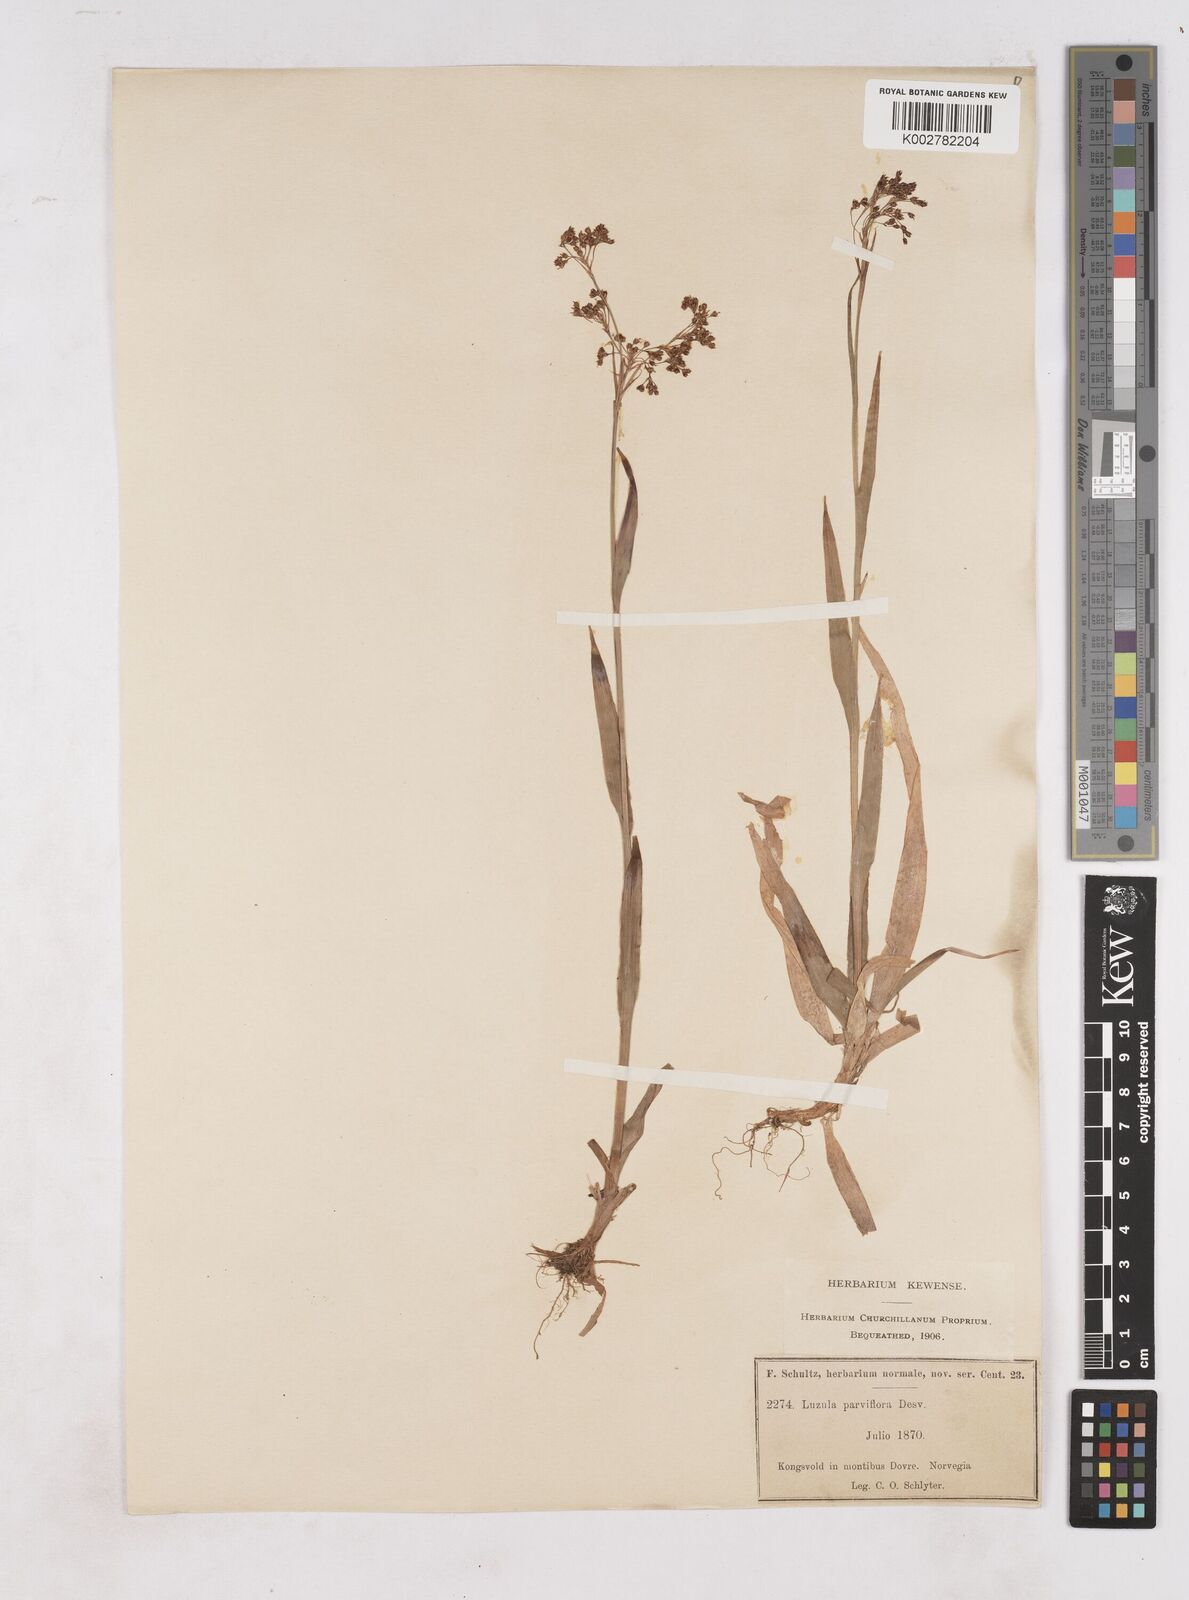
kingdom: Plantae
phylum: Tracheophyta
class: Liliopsida
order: Poales
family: Juncaceae
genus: Luzula
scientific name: Luzula parviflora
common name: Millet woodrush
